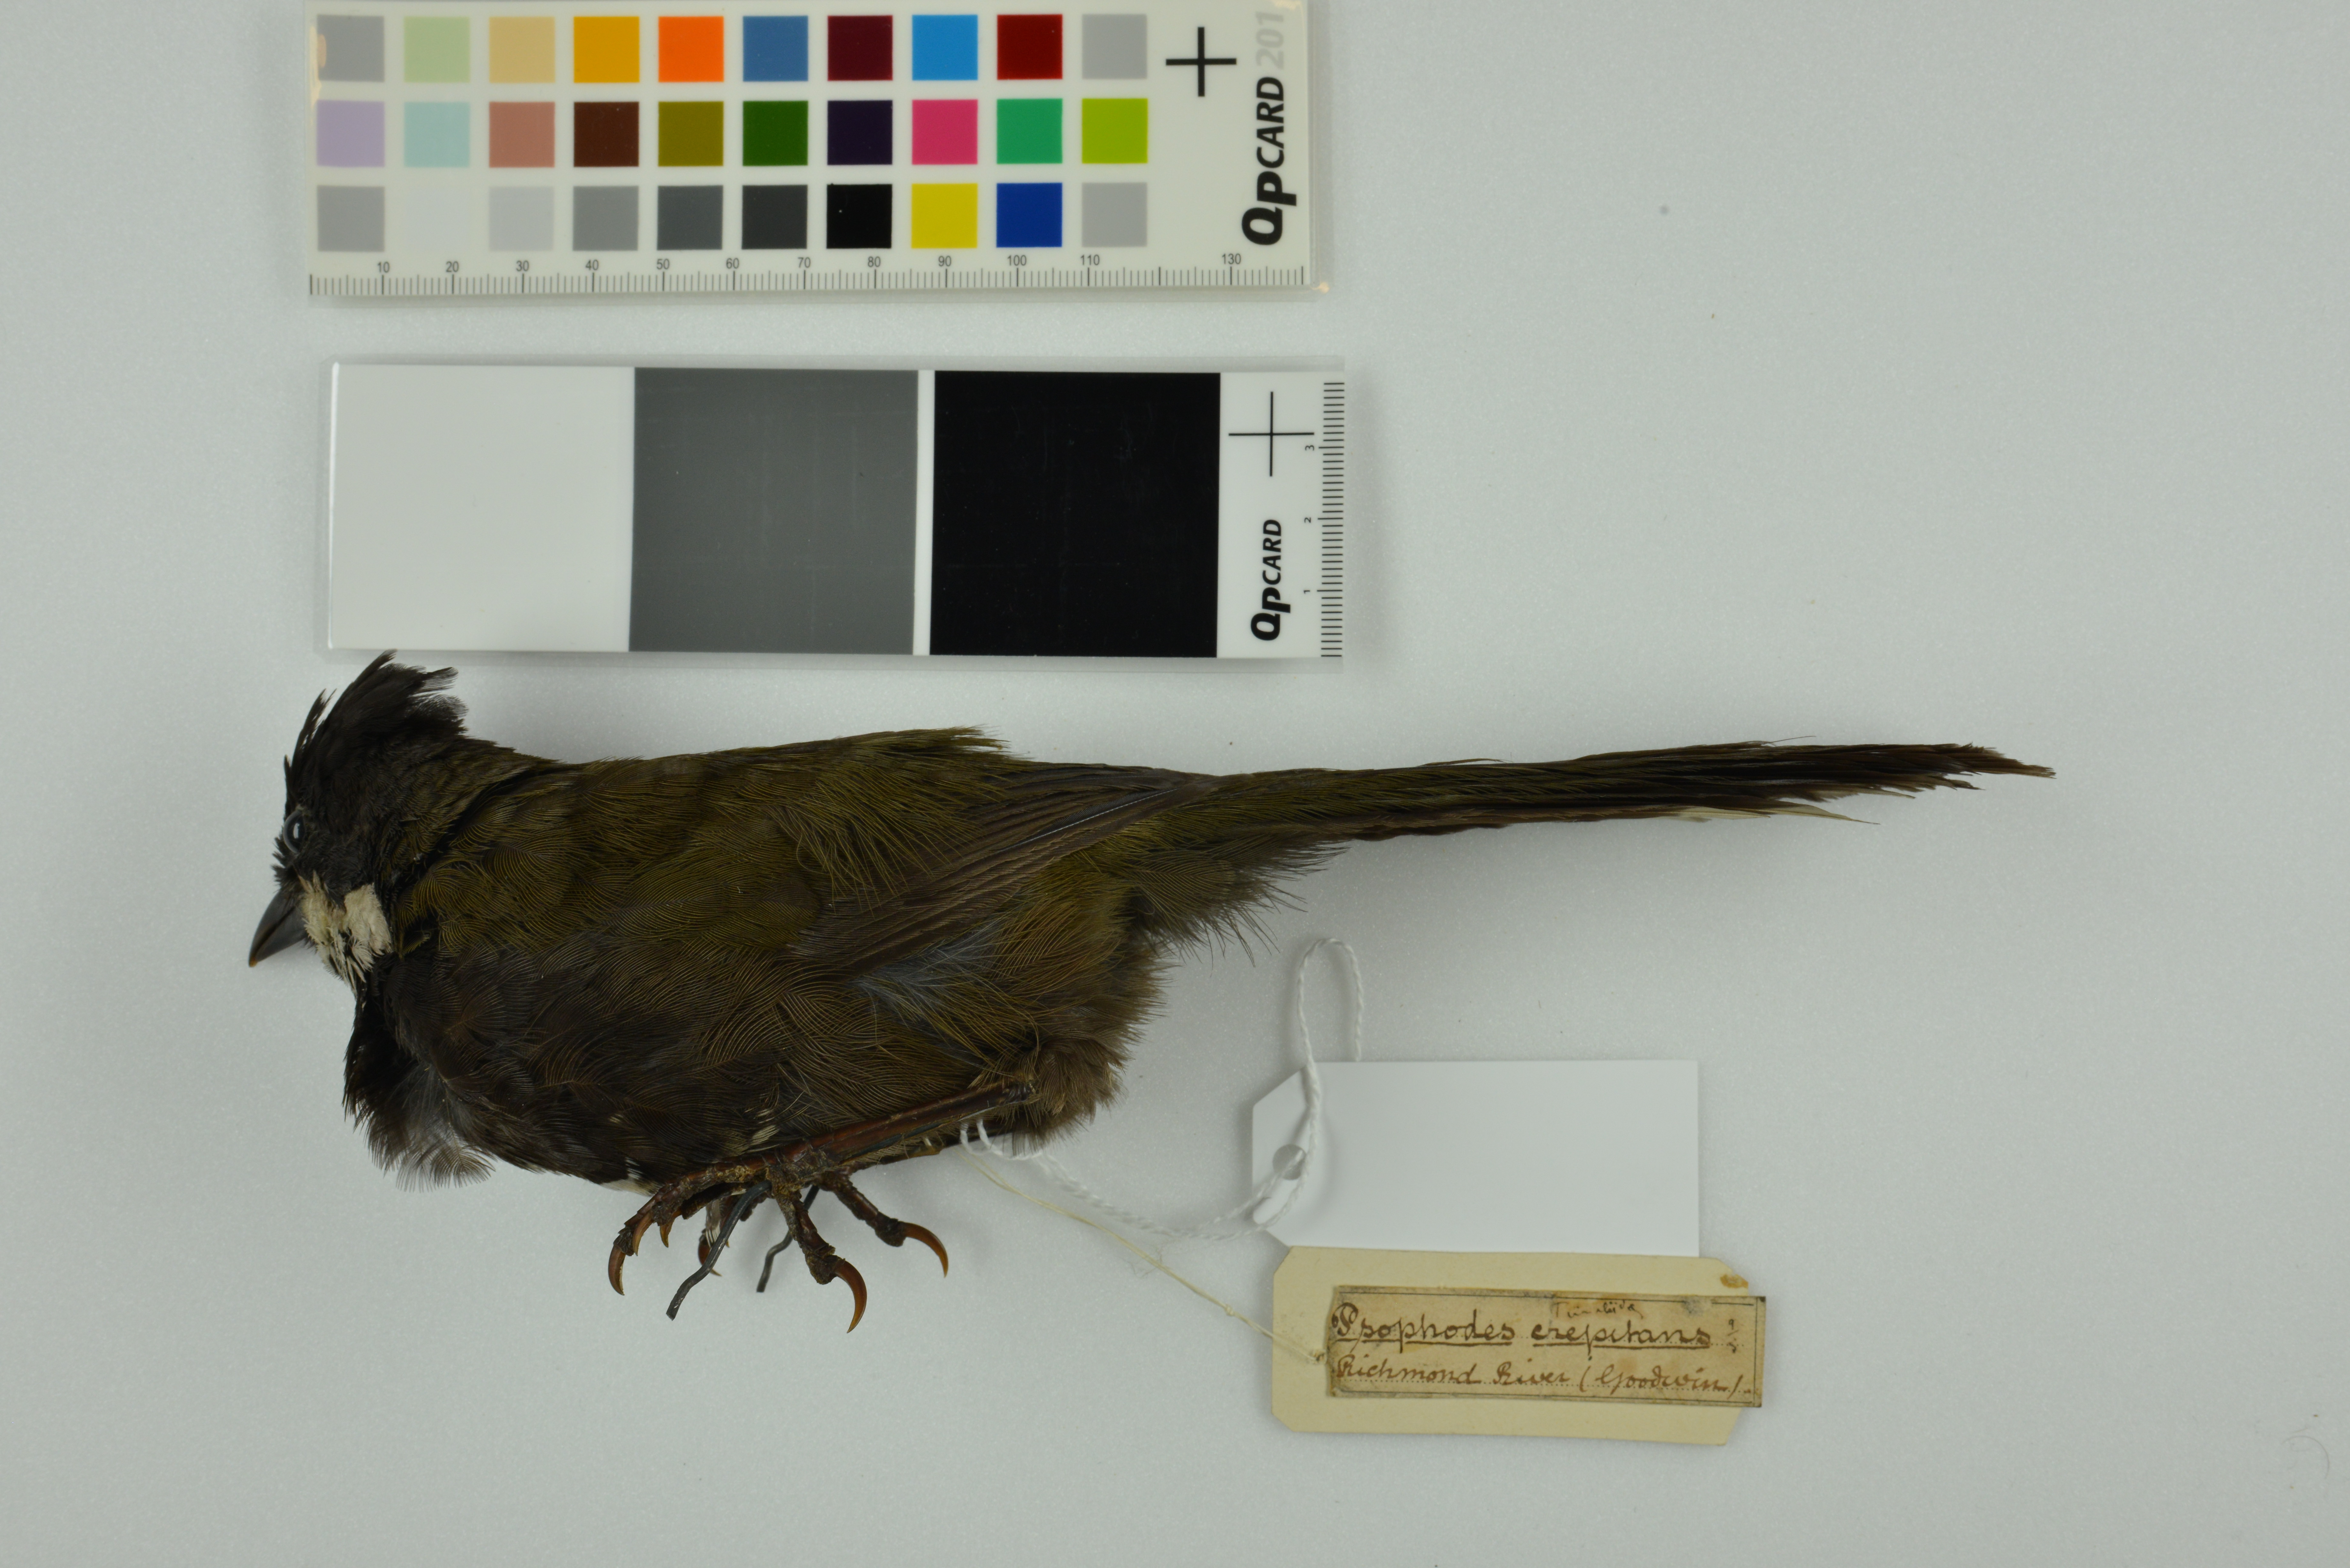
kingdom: Animalia
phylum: Chordata
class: Aves
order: Passeriformes
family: Psophodidae
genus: Psophodes
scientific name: Psophodes olivaceus
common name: Eastern whipbird
